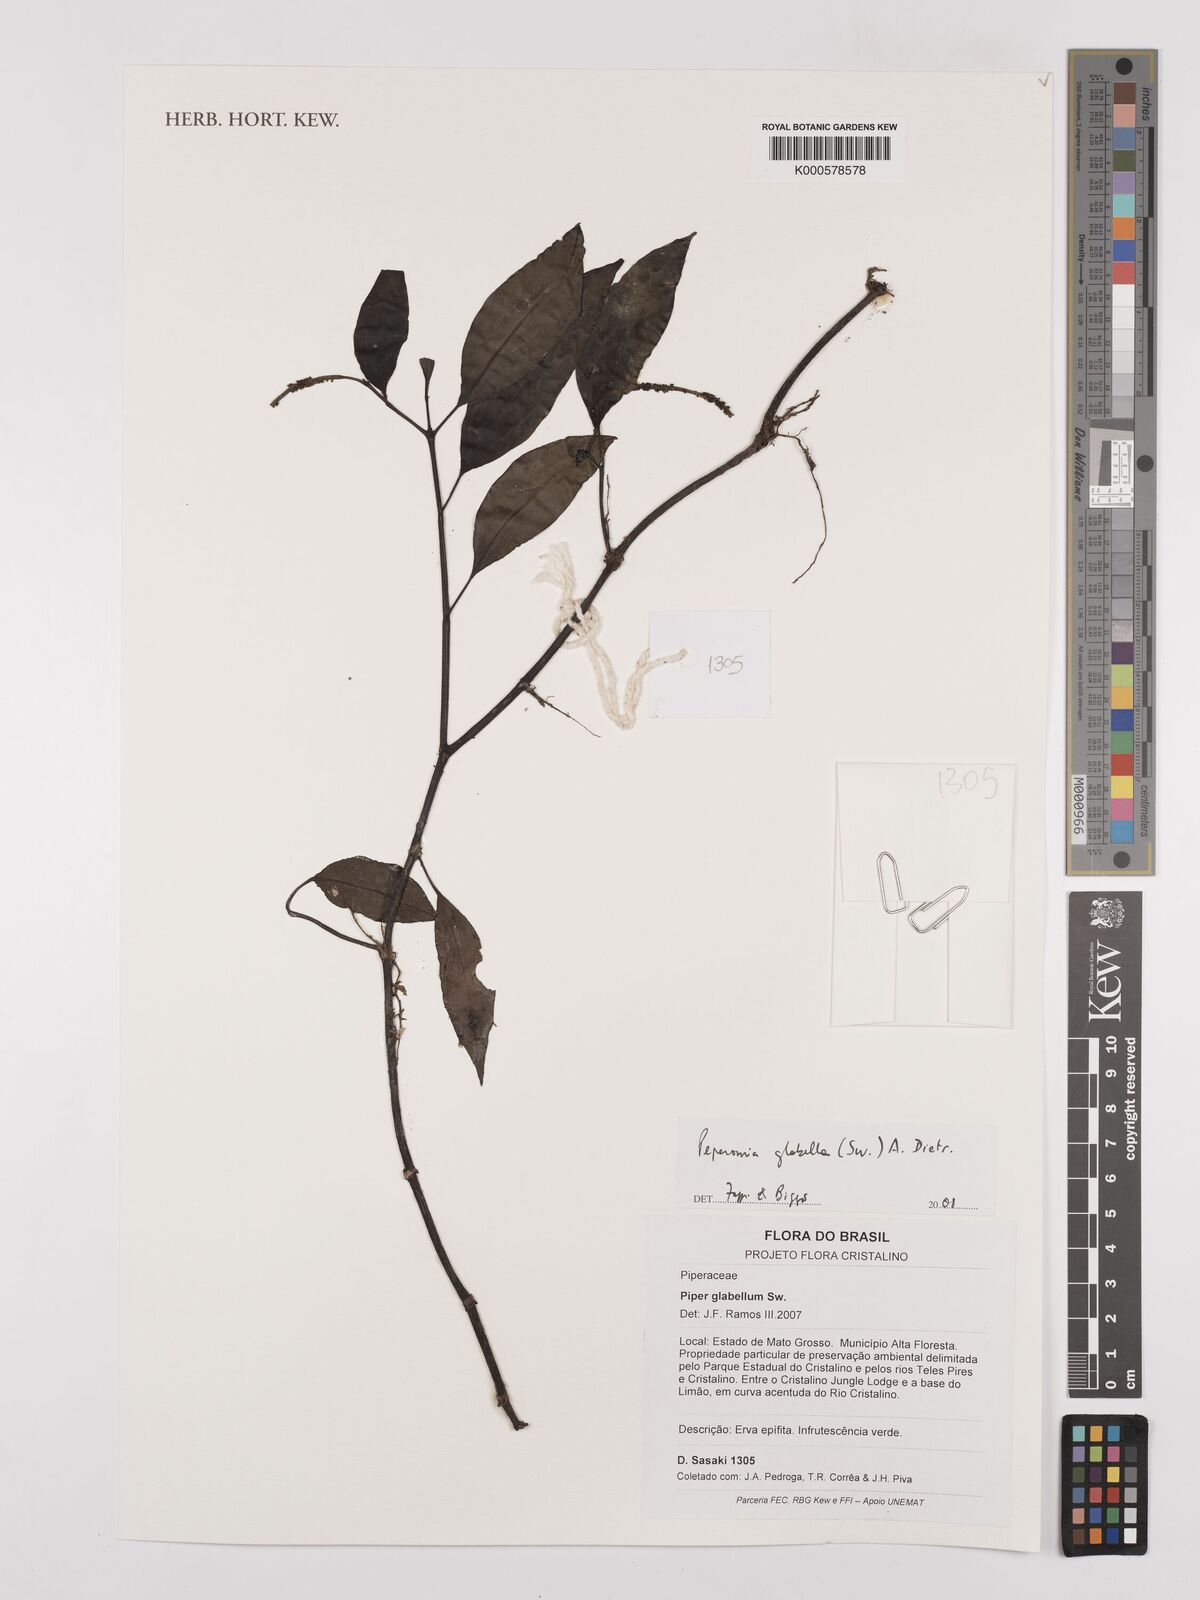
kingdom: Plantae
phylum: Tracheophyta
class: Magnoliopsida
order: Piperales
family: Piperaceae
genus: Peperomia
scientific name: Peperomia glabella
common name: Cypress peperomia
